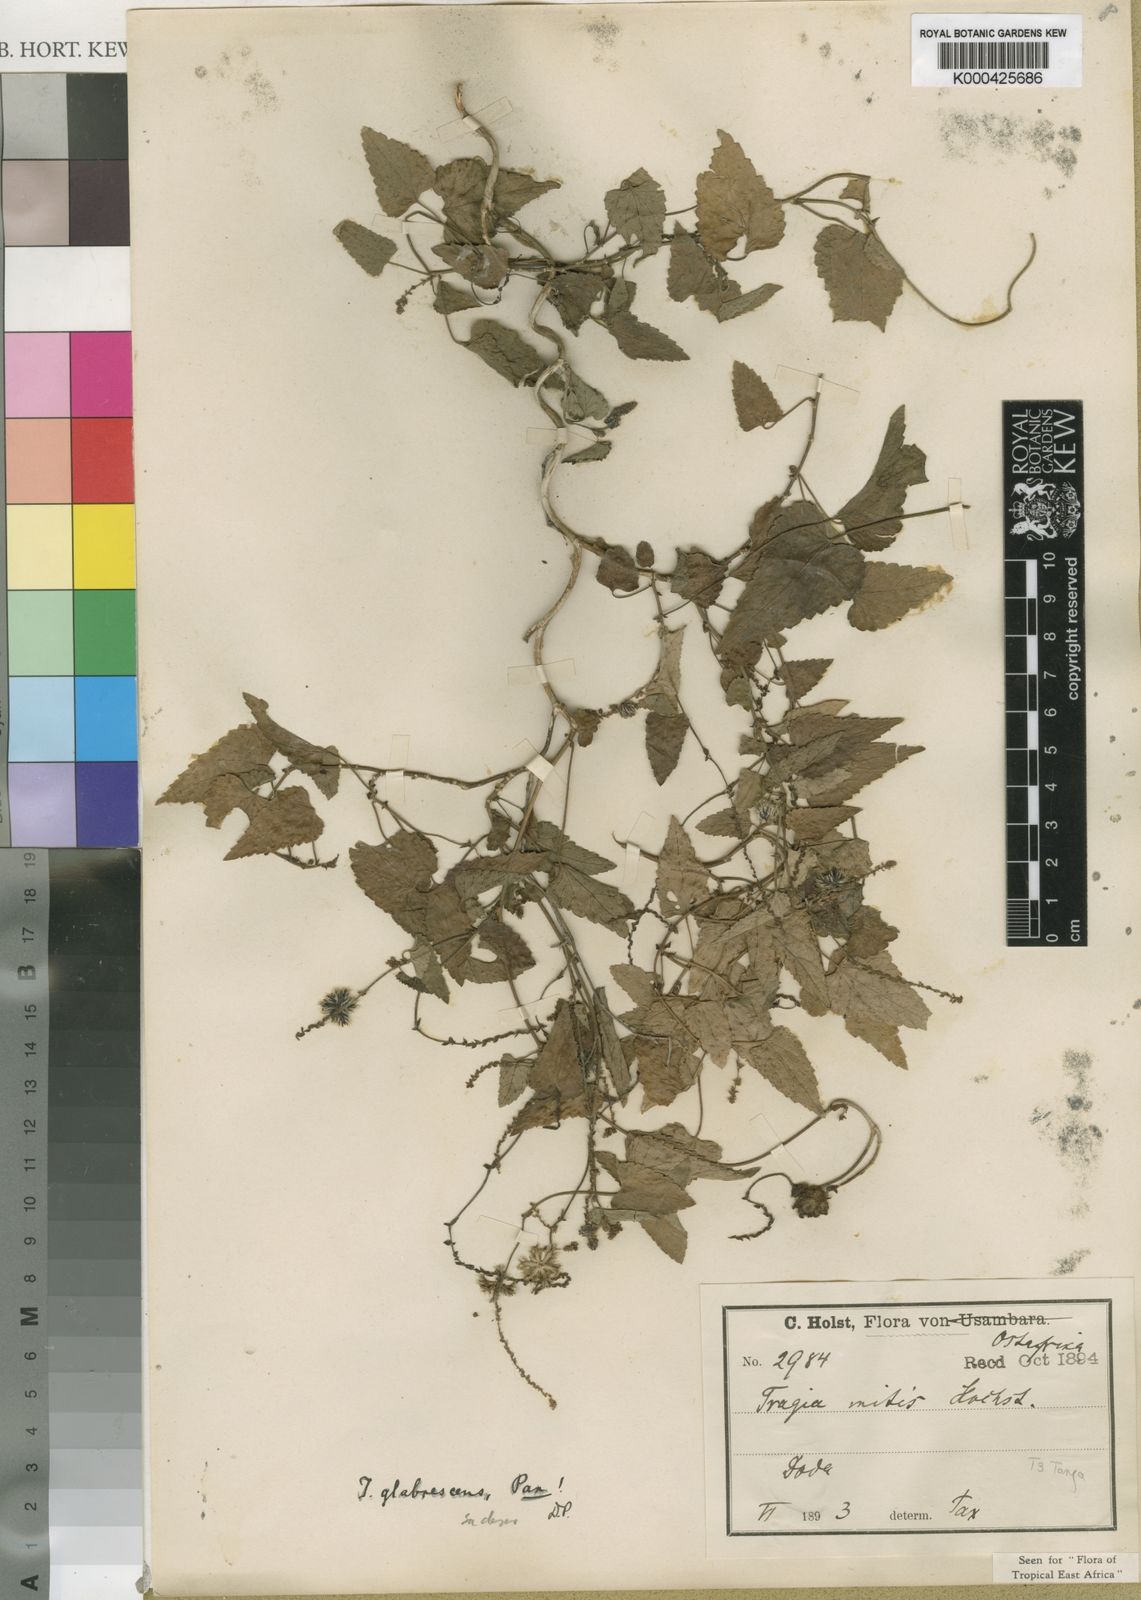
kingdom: Plantae
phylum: Tracheophyta
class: Magnoliopsida
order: Malpighiales
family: Euphorbiaceae
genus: Tragia
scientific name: Tragia glabrescens
